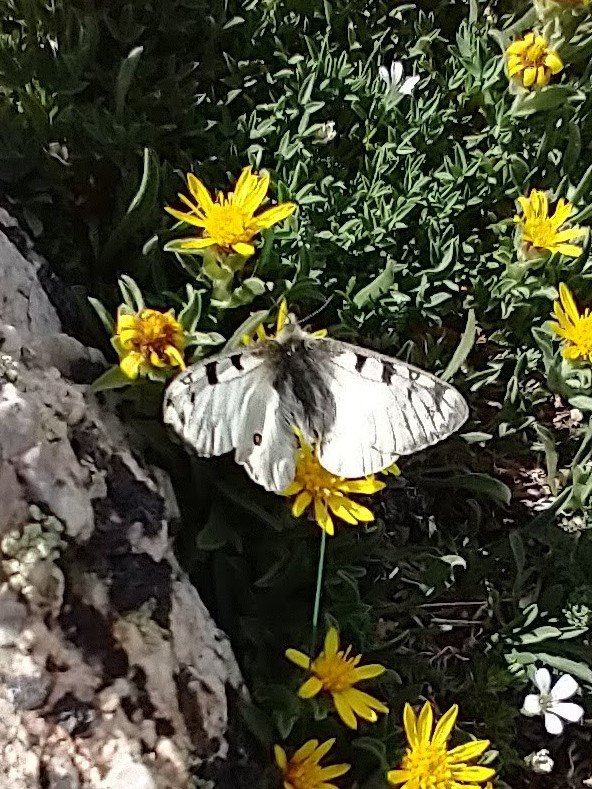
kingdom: Animalia
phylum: Arthropoda
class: Insecta
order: Lepidoptera
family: Papilionidae
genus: Parnassius
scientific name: Parnassius smintheus
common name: Rocky Mountain Parnassian
